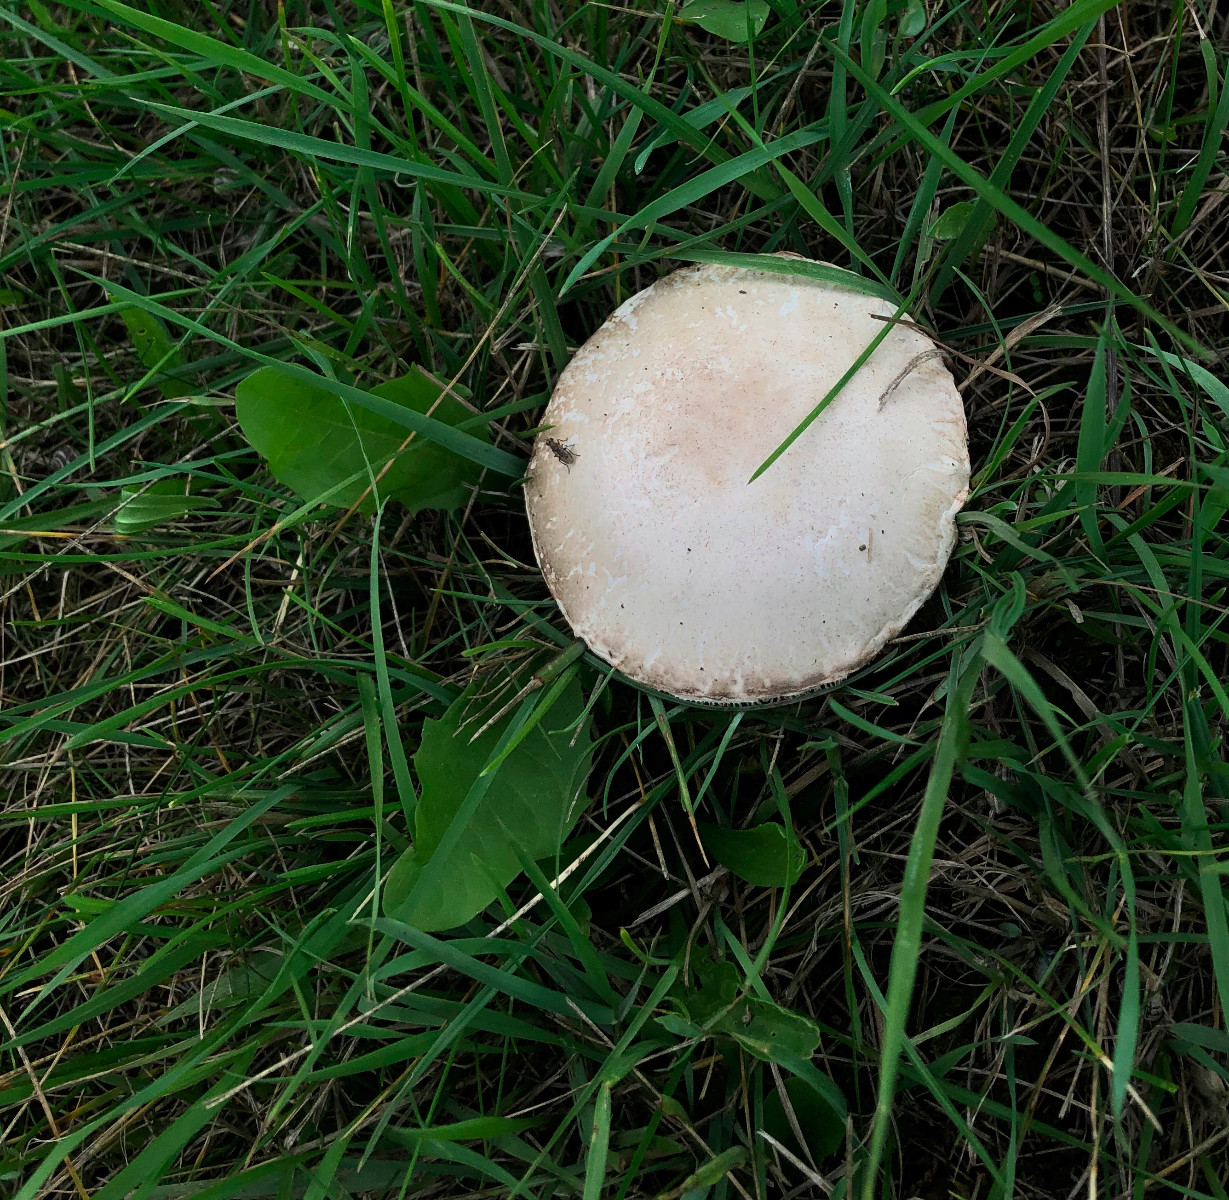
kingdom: Fungi
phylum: Basidiomycota
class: Agaricomycetes
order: Agaricales
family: Agaricaceae
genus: Leucoagaricus
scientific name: Leucoagaricus leucothites
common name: rosabladet silkehat
